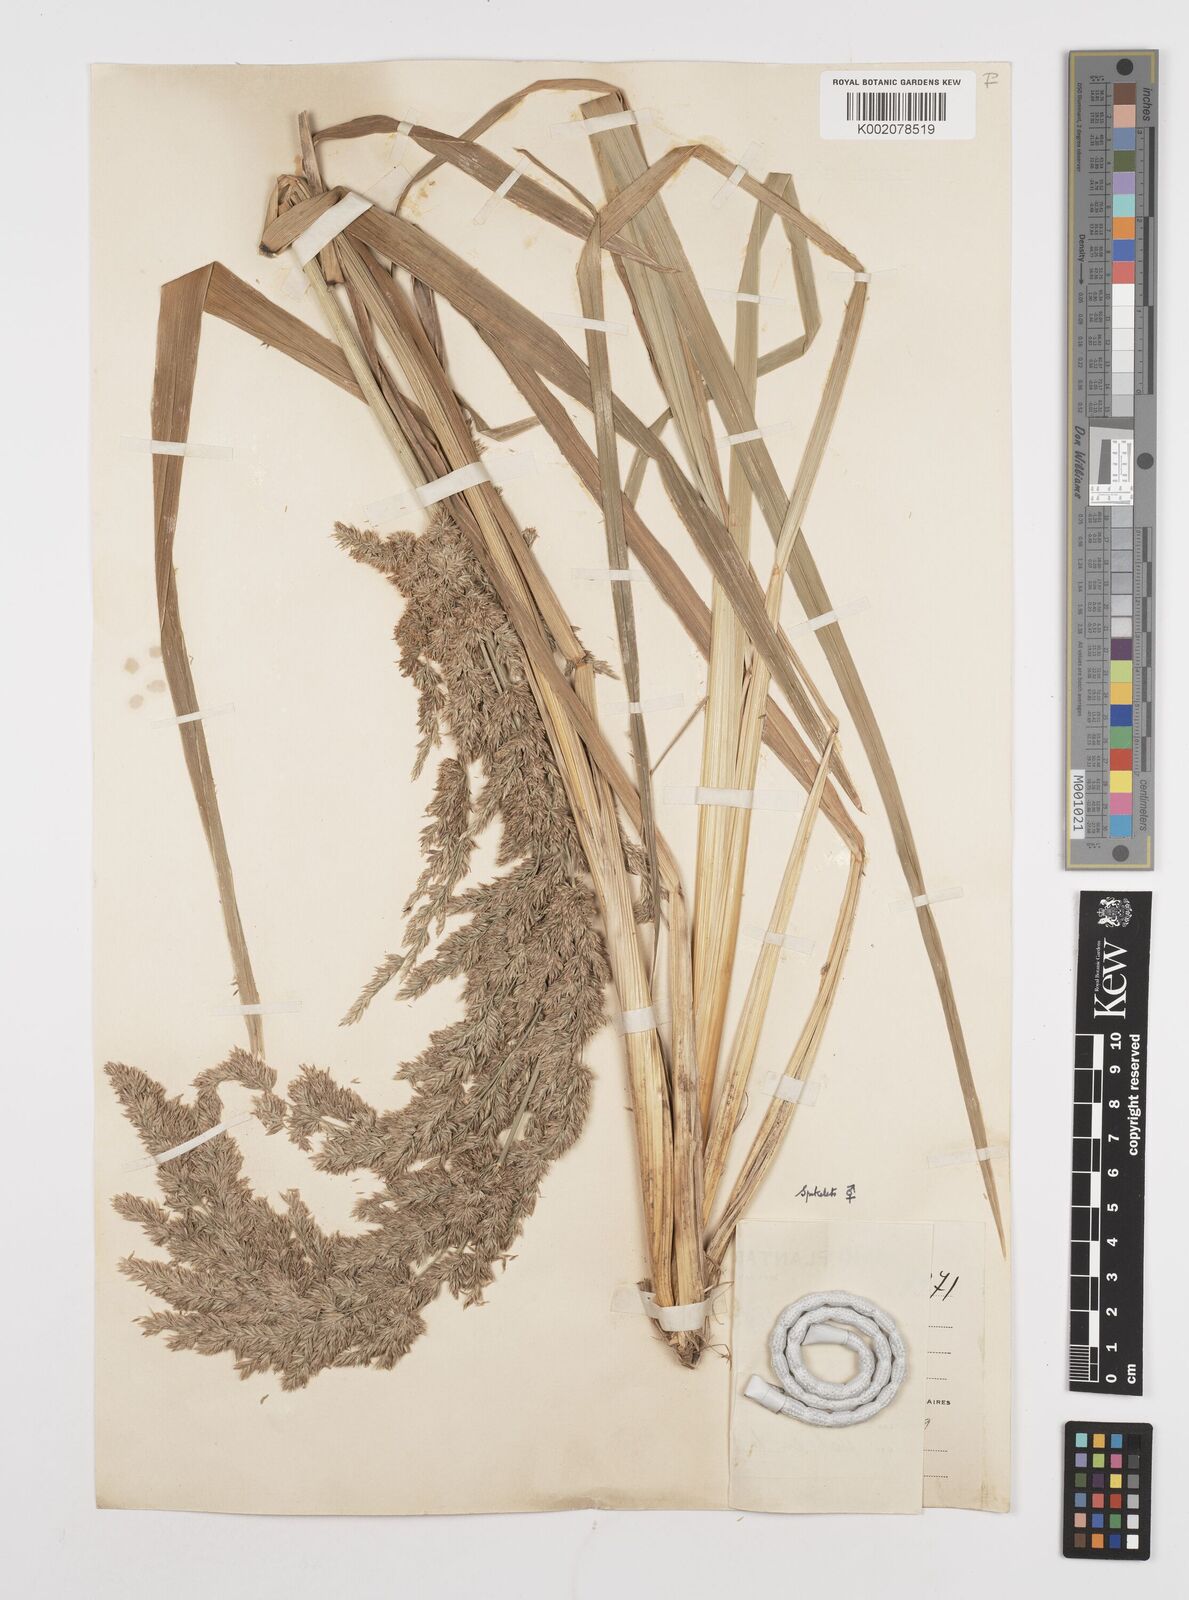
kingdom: Plantae
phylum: Tracheophyta
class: Liliopsida
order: Poales
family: Poaceae
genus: Poa
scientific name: Poa iridifolia
